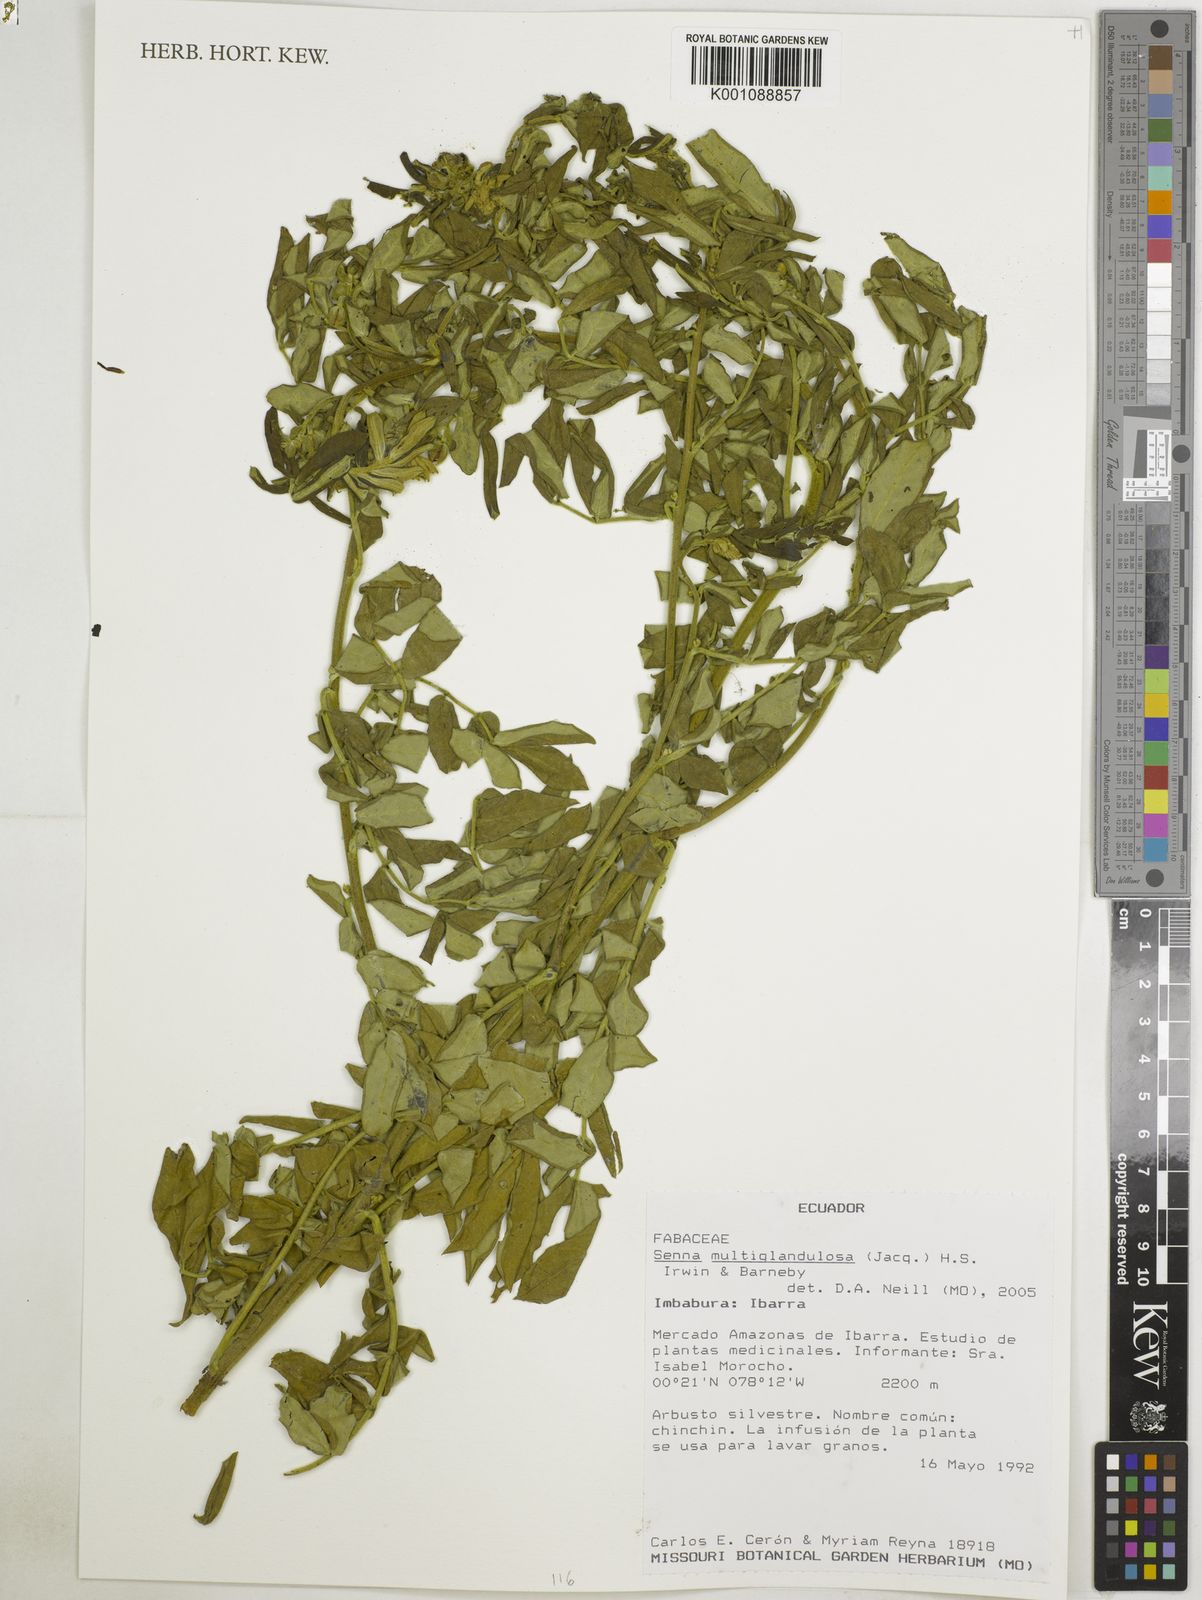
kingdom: Plantae
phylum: Tracheophyta
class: Magnoliopsida
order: Fabales
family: Fabaceae
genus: Senna
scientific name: Senna multiglandulosa
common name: Glandular senna
